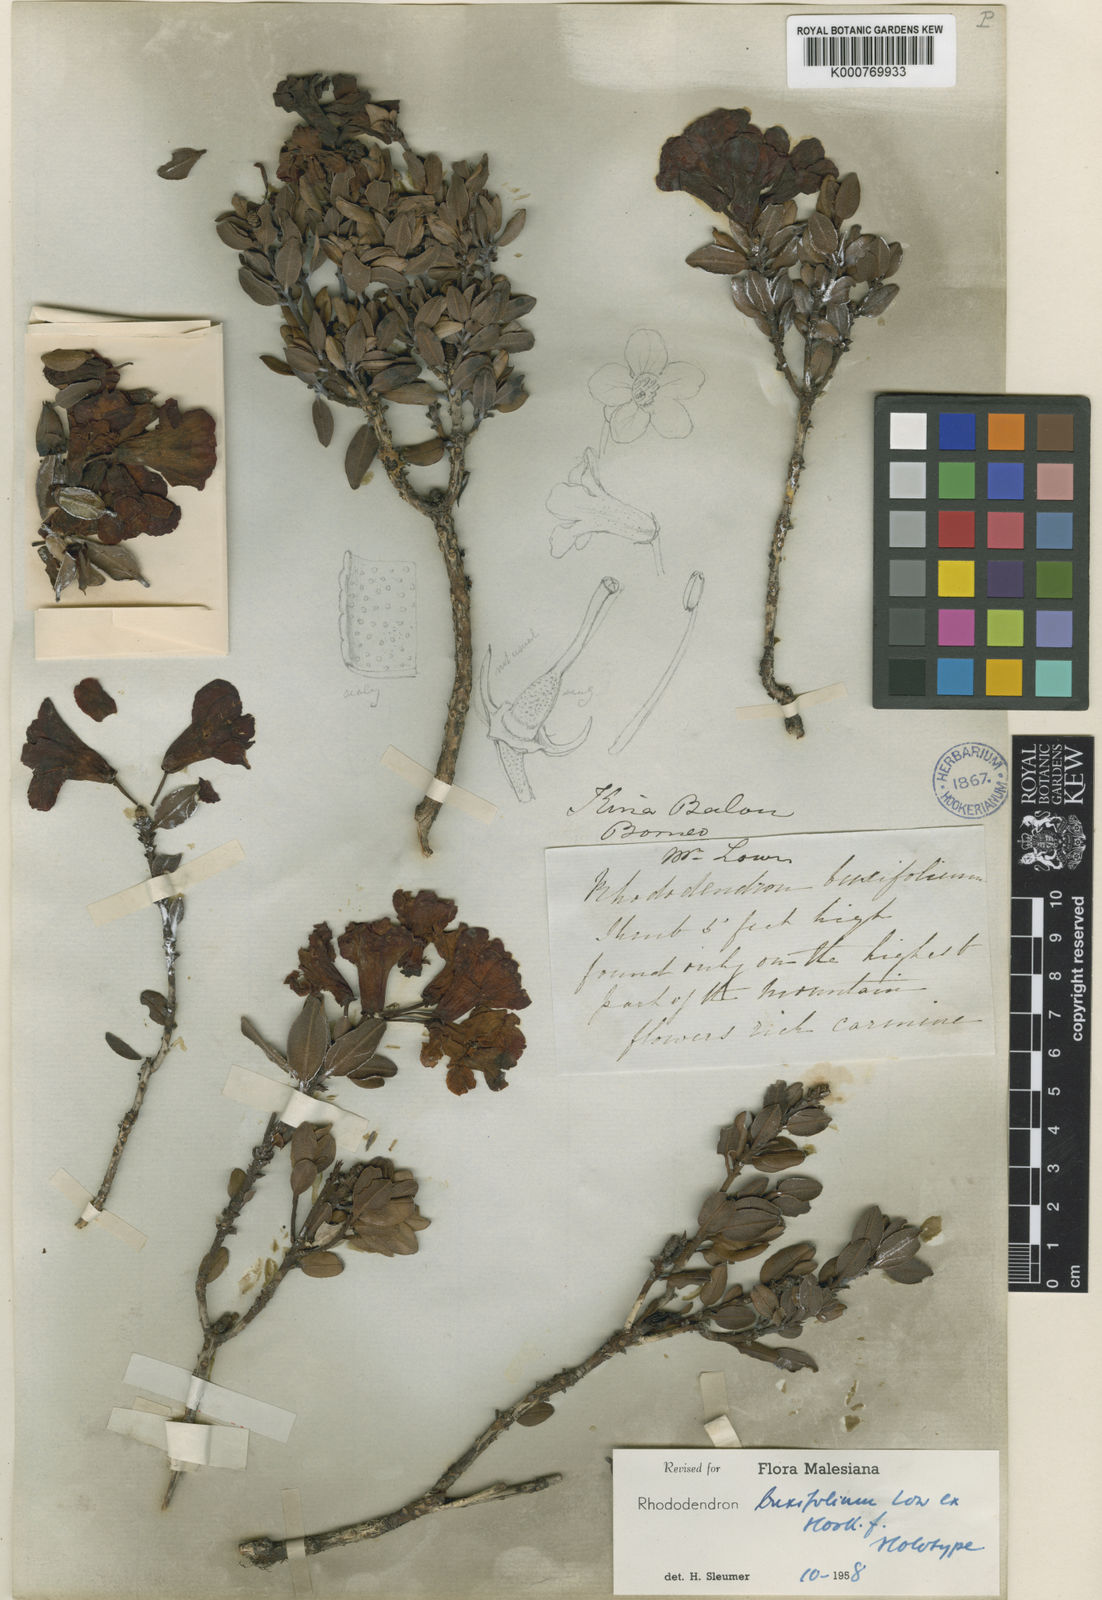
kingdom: Plantae
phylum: Tracheophyta
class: Magnoliopsida
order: Ericales
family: Ericaceae
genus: Rhododendron
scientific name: Rhododendron buxifolium
